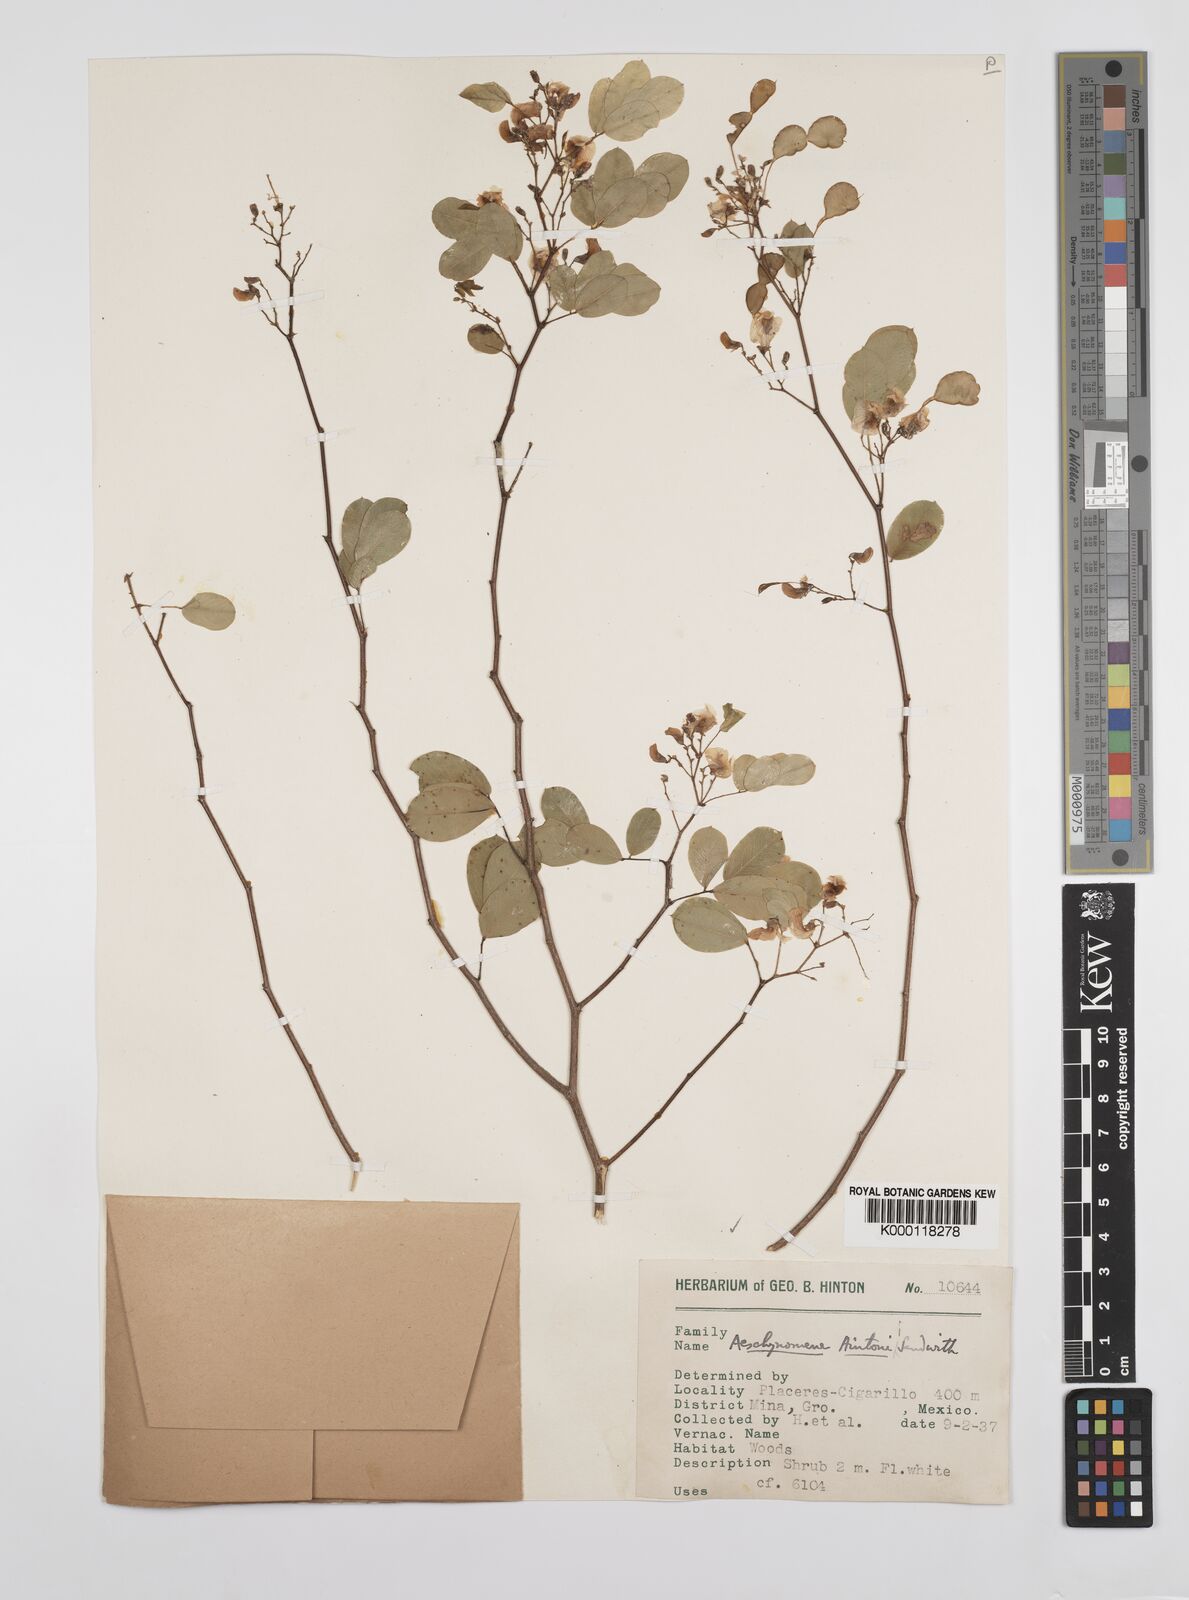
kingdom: Plantae
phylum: Tracheophyta
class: Magnoliopsida
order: Fabales
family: Fabaceae
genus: Ctenodon
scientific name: Ctenodon hintonii
